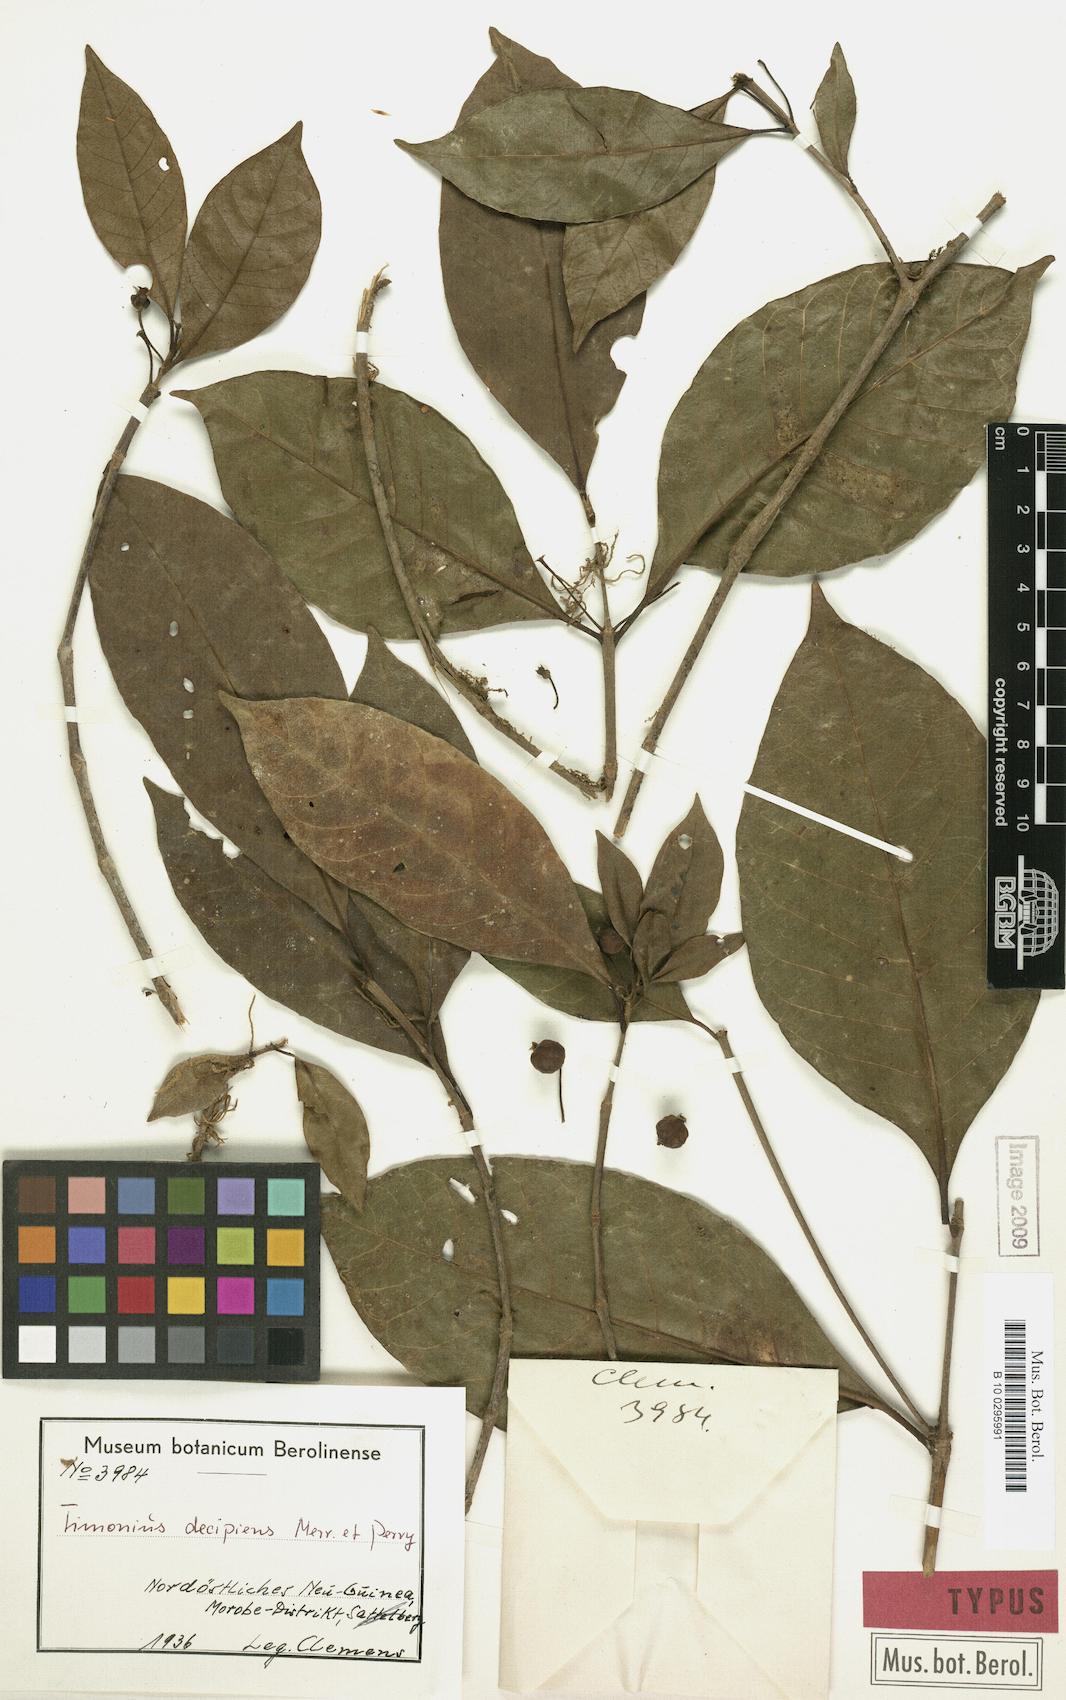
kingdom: Plantae
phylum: Tracheophyta
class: Magnoliopsida
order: Gentianales
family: Rubiaceae
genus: Timonius
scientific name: Timonius decipiens
